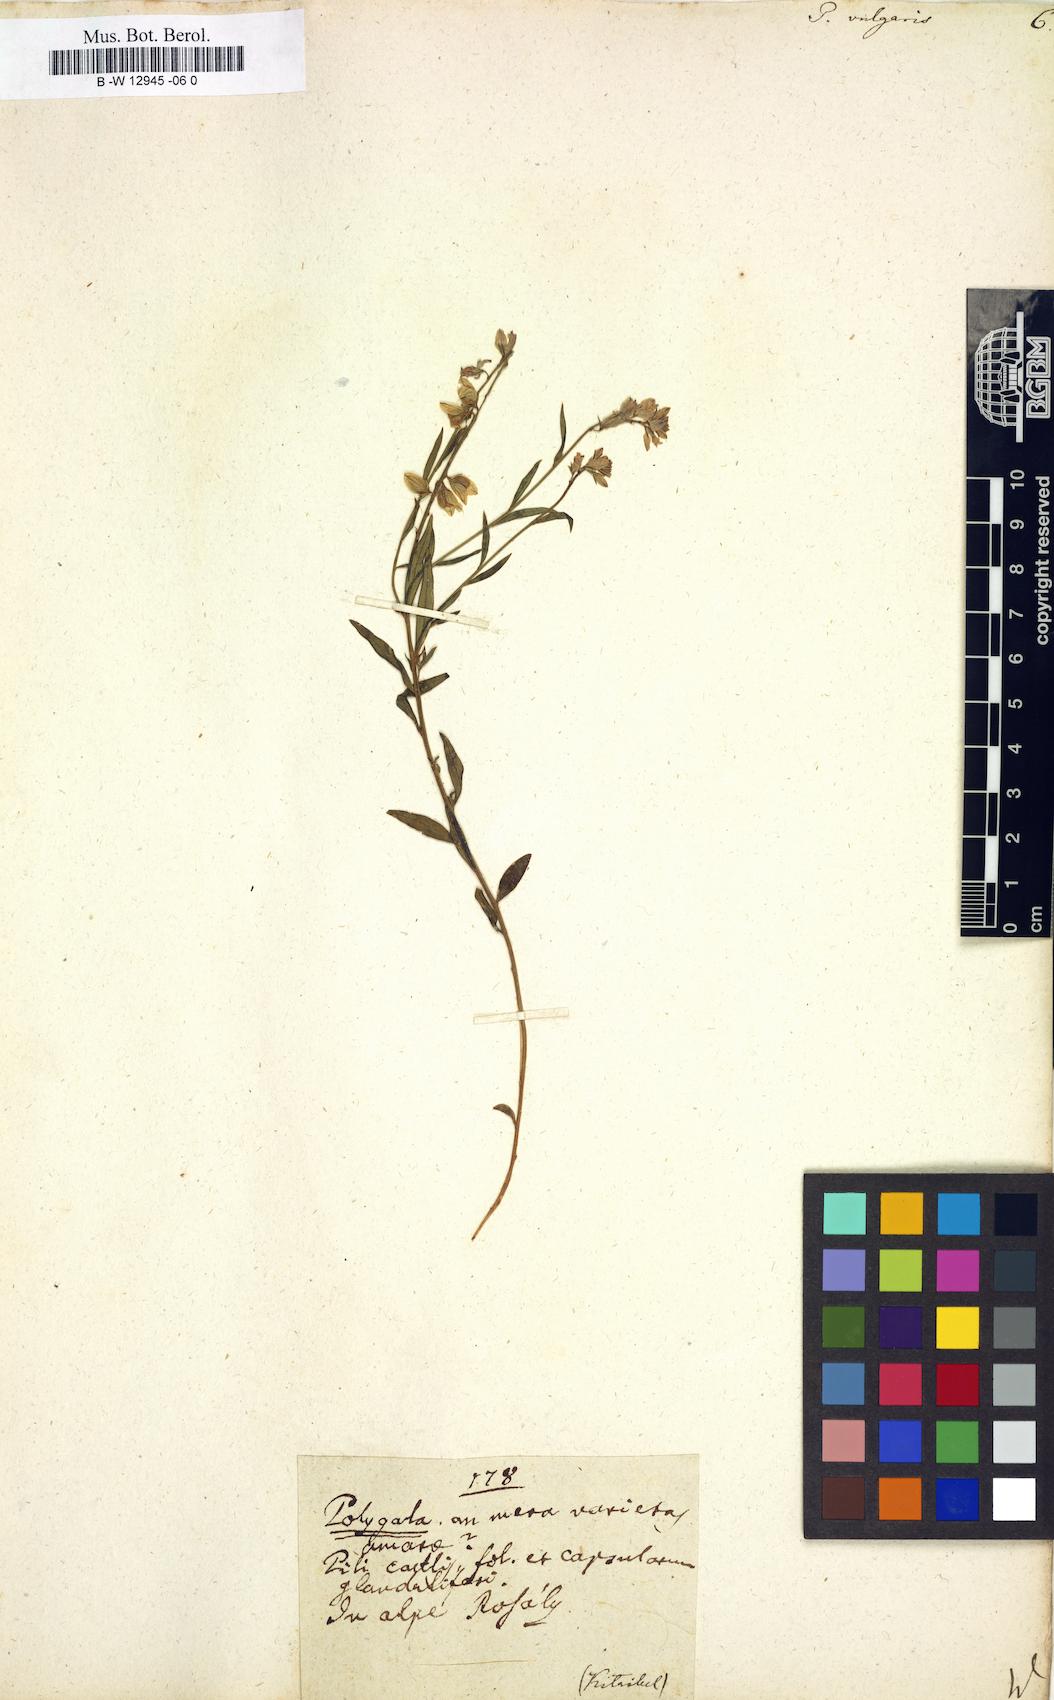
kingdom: Plantae
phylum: Tracheophyta
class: Magnoliopsida
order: Fabales
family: Polygalaceae
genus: Polygala
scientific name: Polygala vulgaris
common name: Common milkwort
